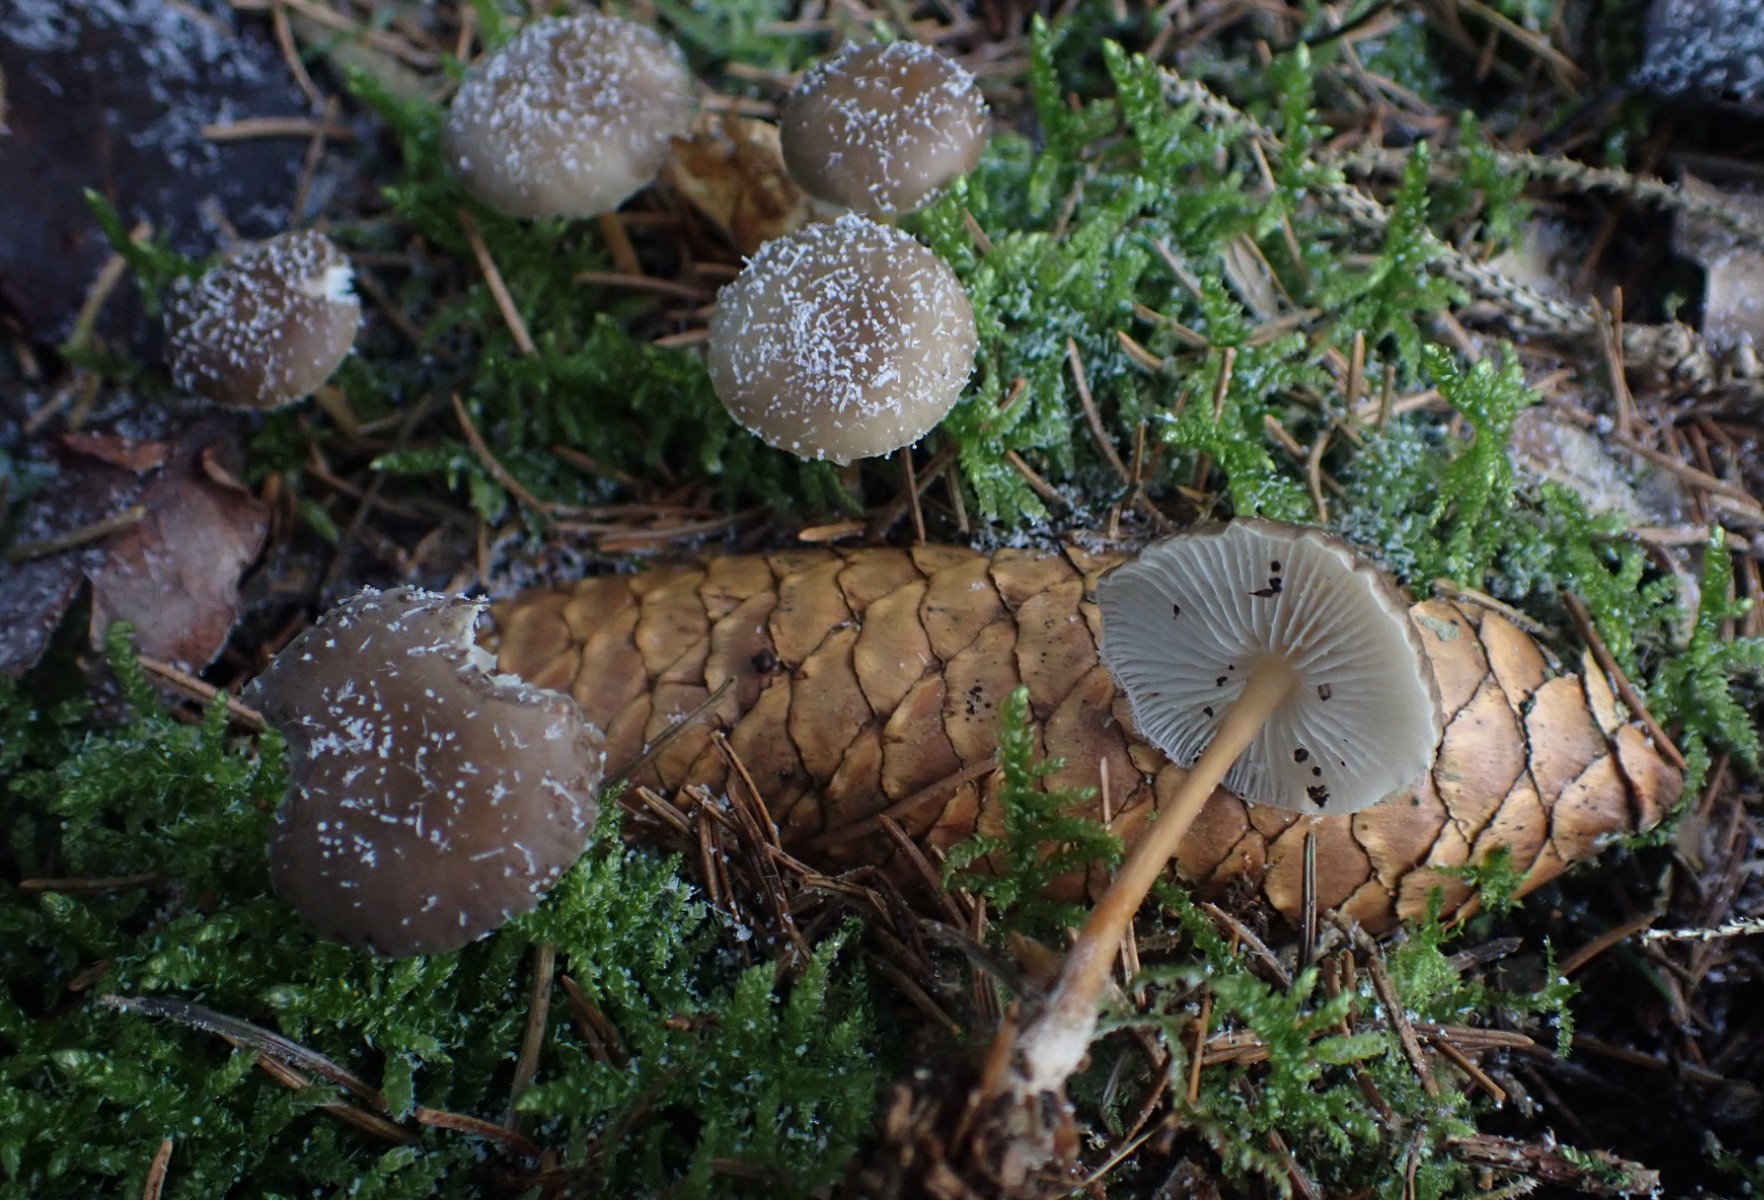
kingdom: Fungi
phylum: Basidiomycota
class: Agaricomycetes
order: Agaricales
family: Physalacriaceae
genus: Strobilurus
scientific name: Strobilurus esculentus
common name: gran-koglehat
